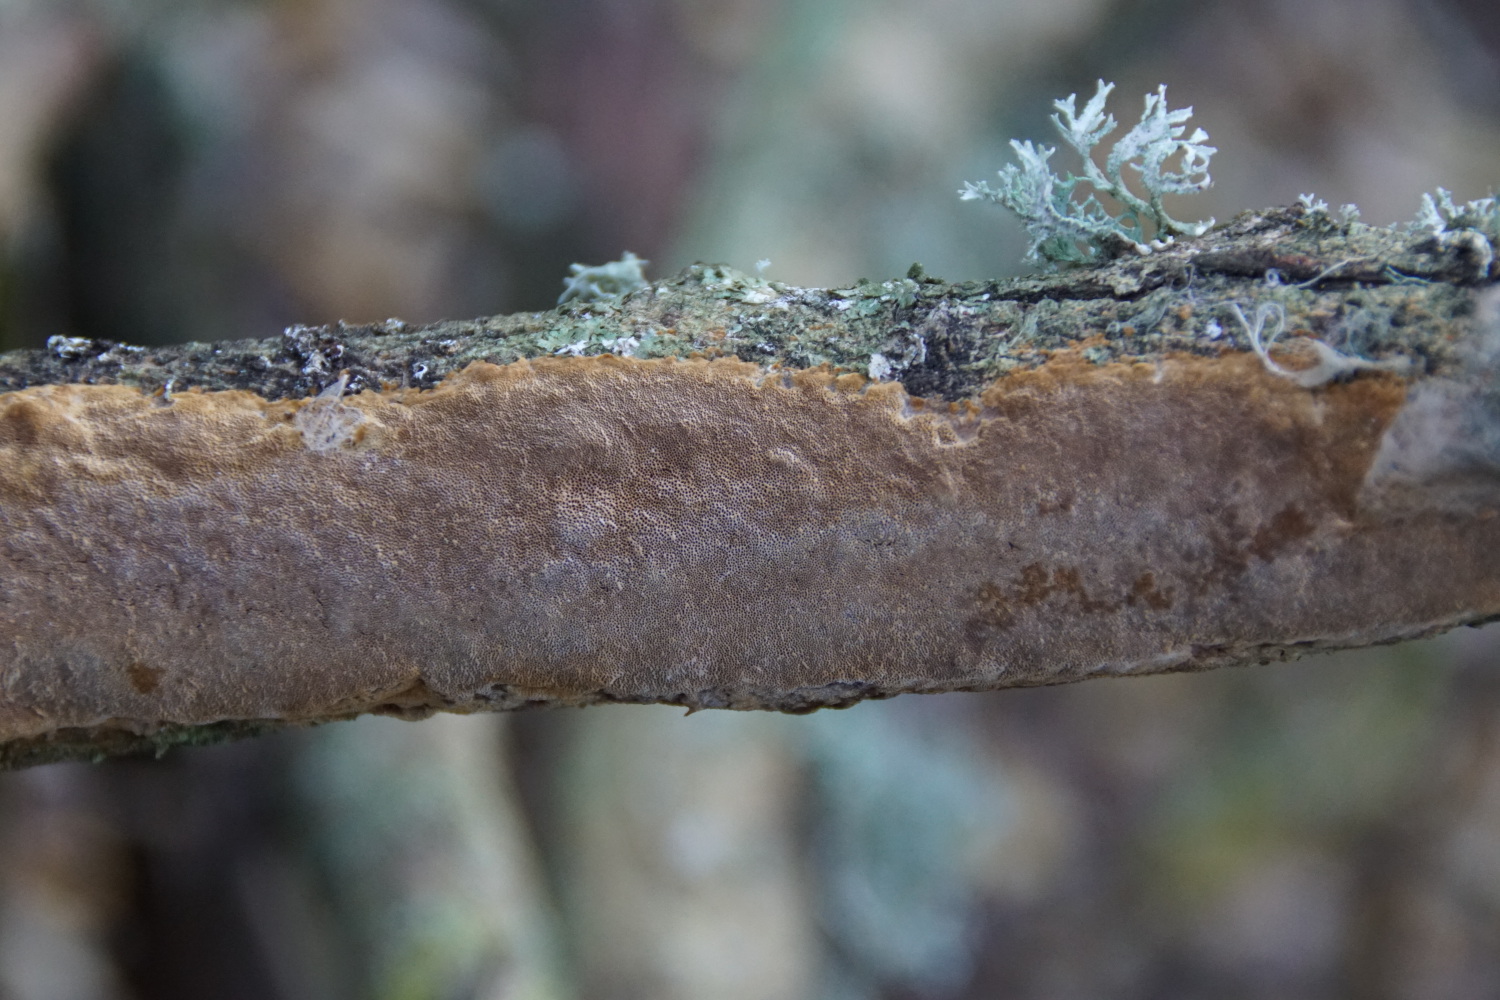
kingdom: Fungi
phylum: Basidiomycota
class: Agaricomycetes
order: Hymenochaetales
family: Hymenochaetaceae
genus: Fuscoporia
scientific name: Fuscoporia ferrea
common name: skorpe-ildporesvamp
